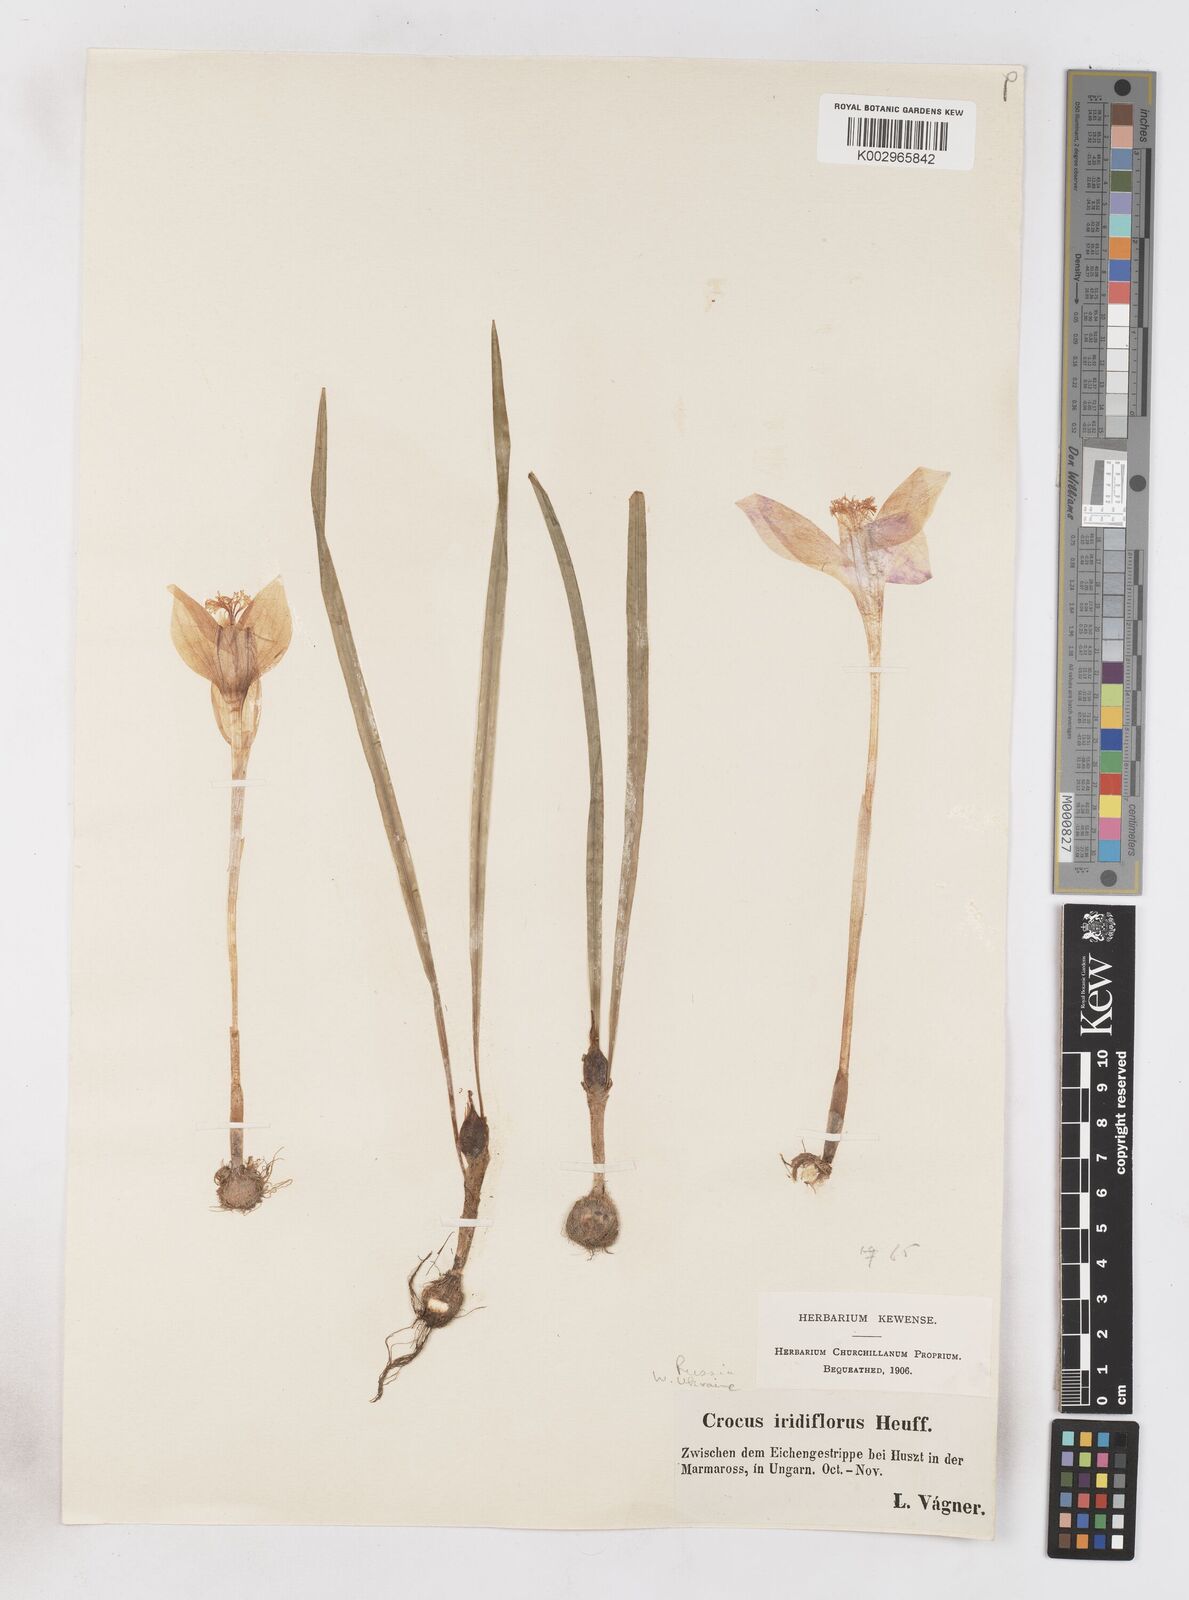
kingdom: Plantae
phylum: Tracheophyta
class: Liliopsida
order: Asparagales
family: Iridaceae
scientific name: Iridaceae
